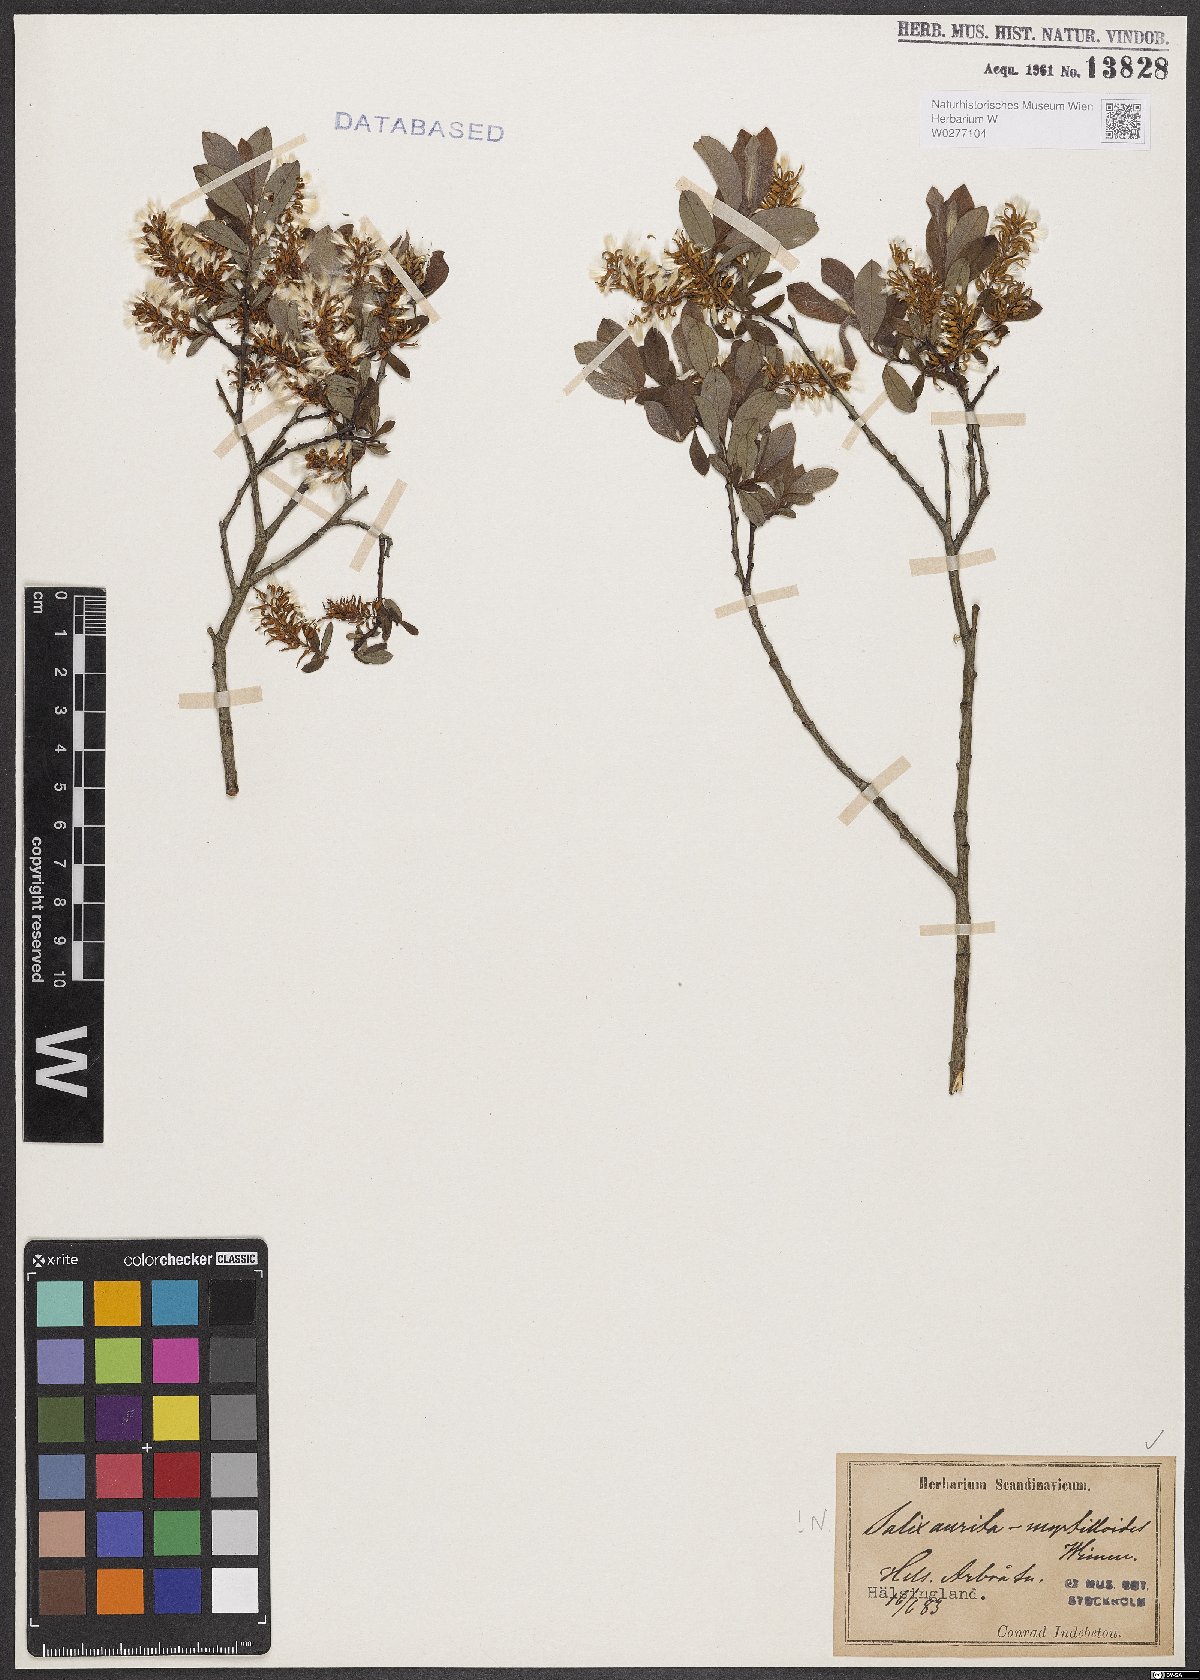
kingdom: Plantae
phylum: Tracheophyta
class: Magnoliopsida
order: Malpighiales
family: Salicaceae
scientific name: Salicaceae
